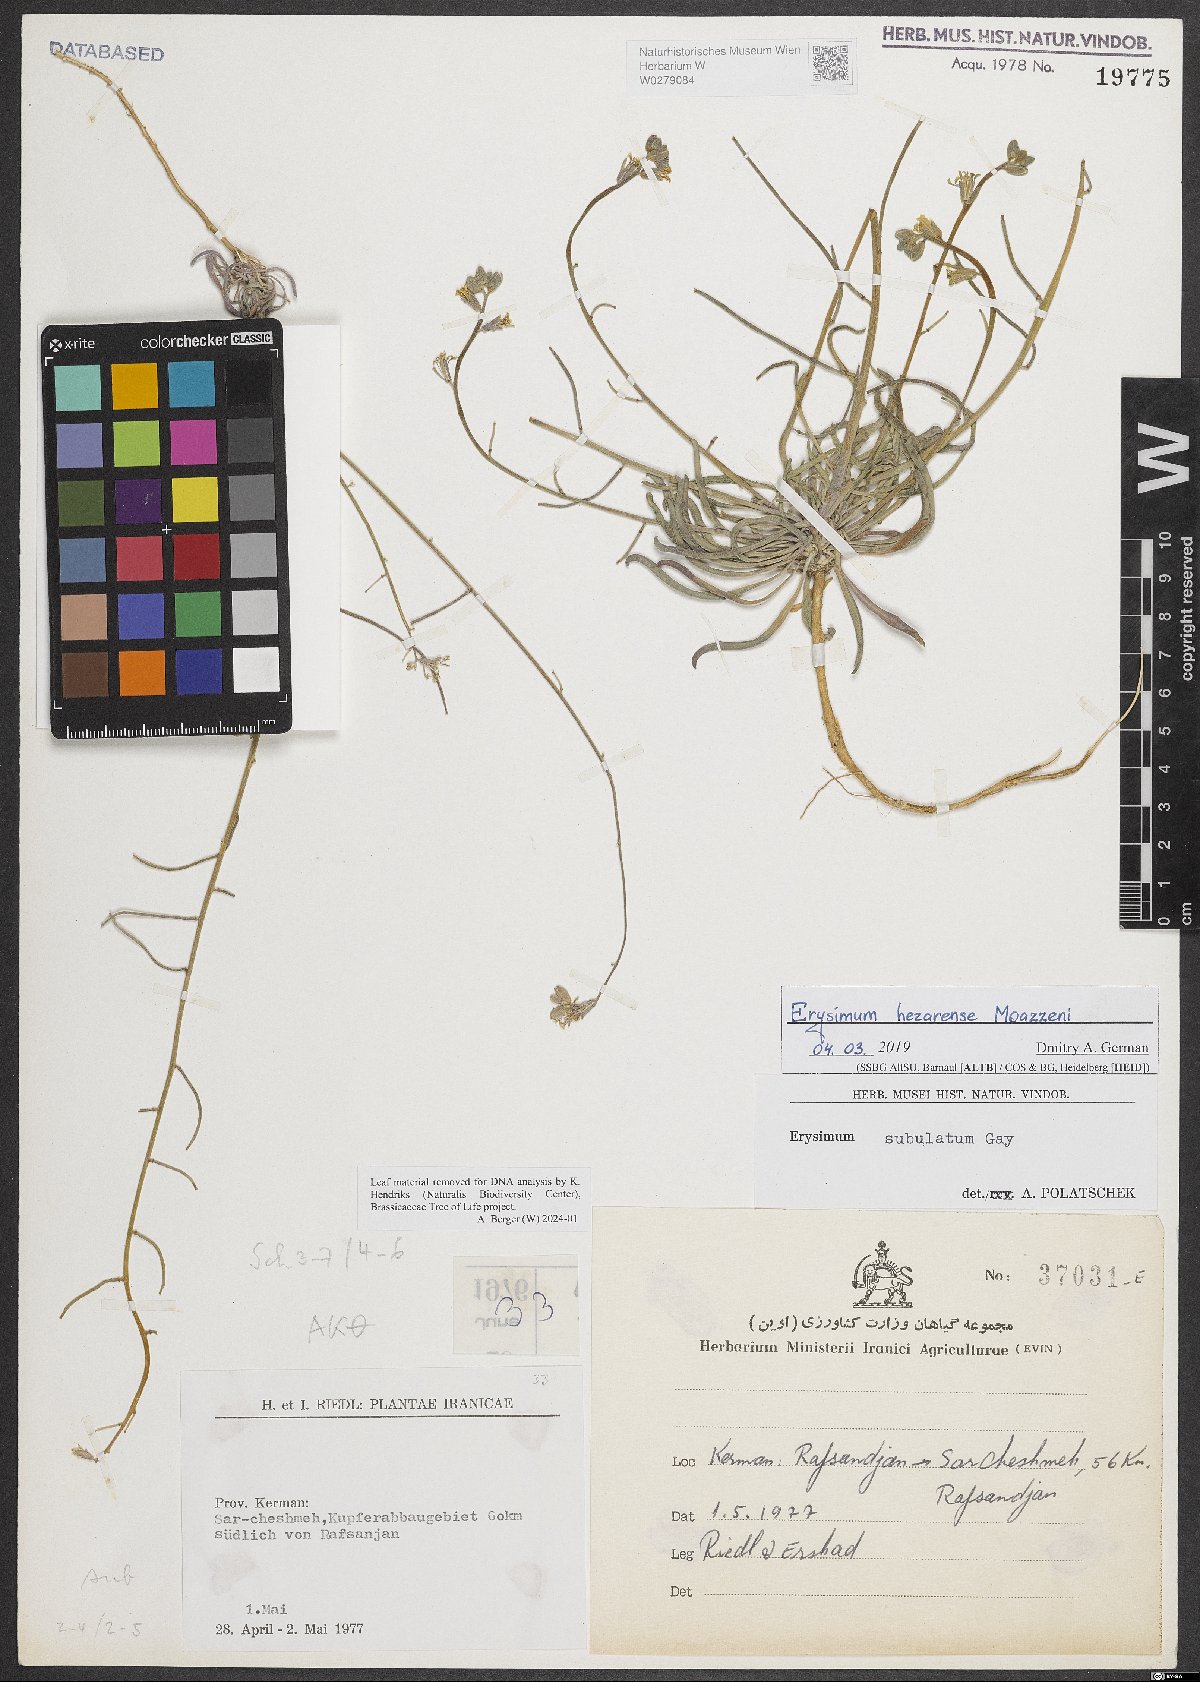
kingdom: Plantae
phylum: Tracheophyta
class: Magnoliopsida
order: Brassicales
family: Brassicaceae
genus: Erysimum
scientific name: Erysimum hezarense
